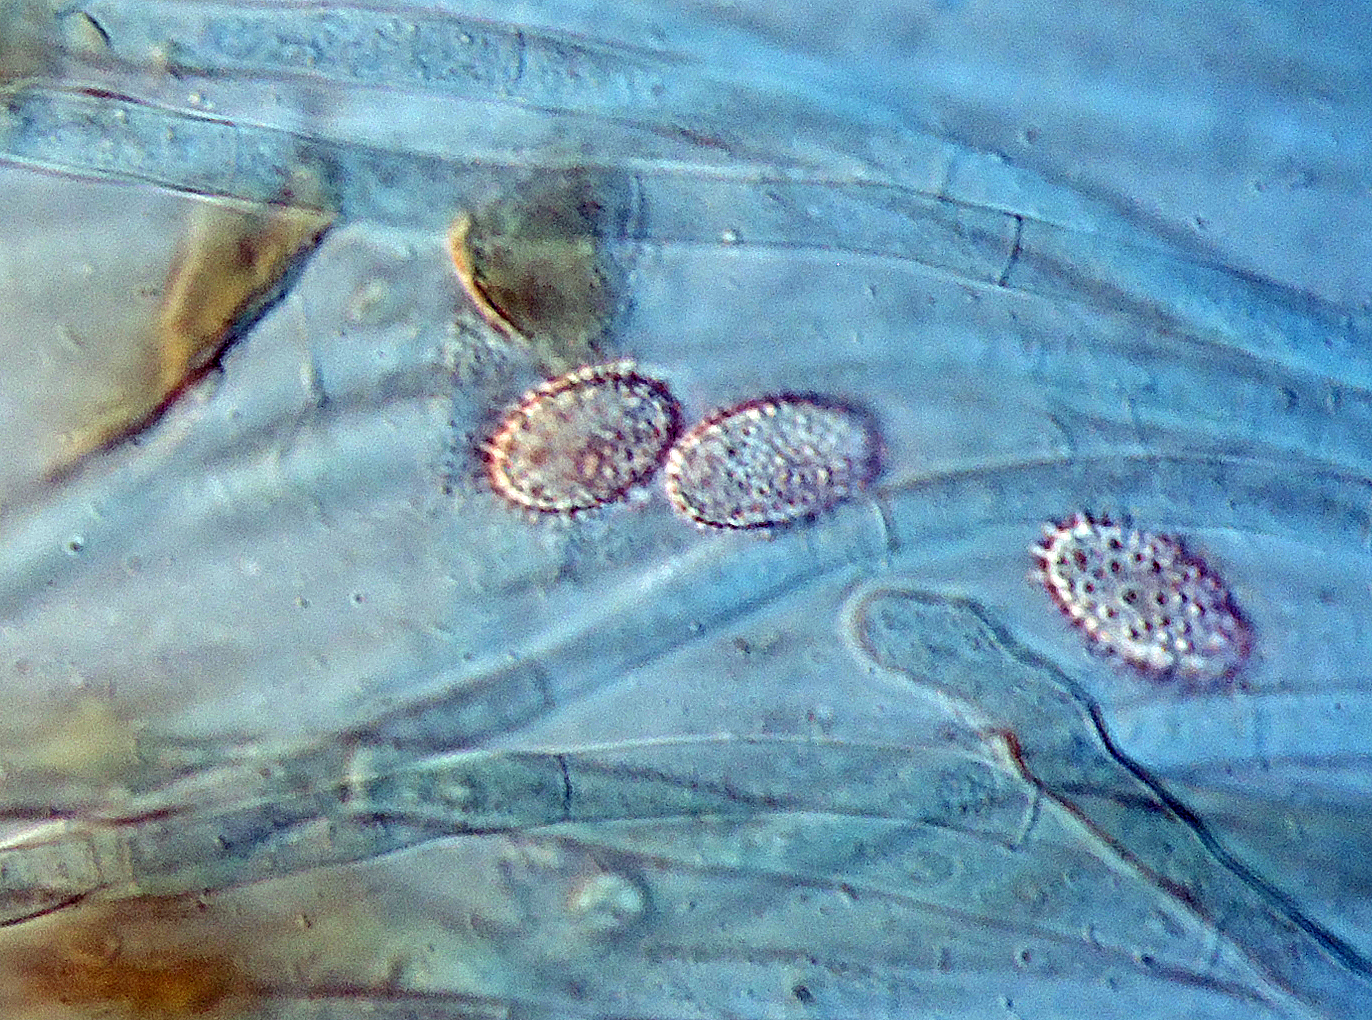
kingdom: Fungi
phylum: Ascomycota
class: Pezizomycetes
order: Pezizales
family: Pezizaceae
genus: Adelphella
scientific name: Adelphella babingtonii
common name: kastaniebrun bægersvamp
